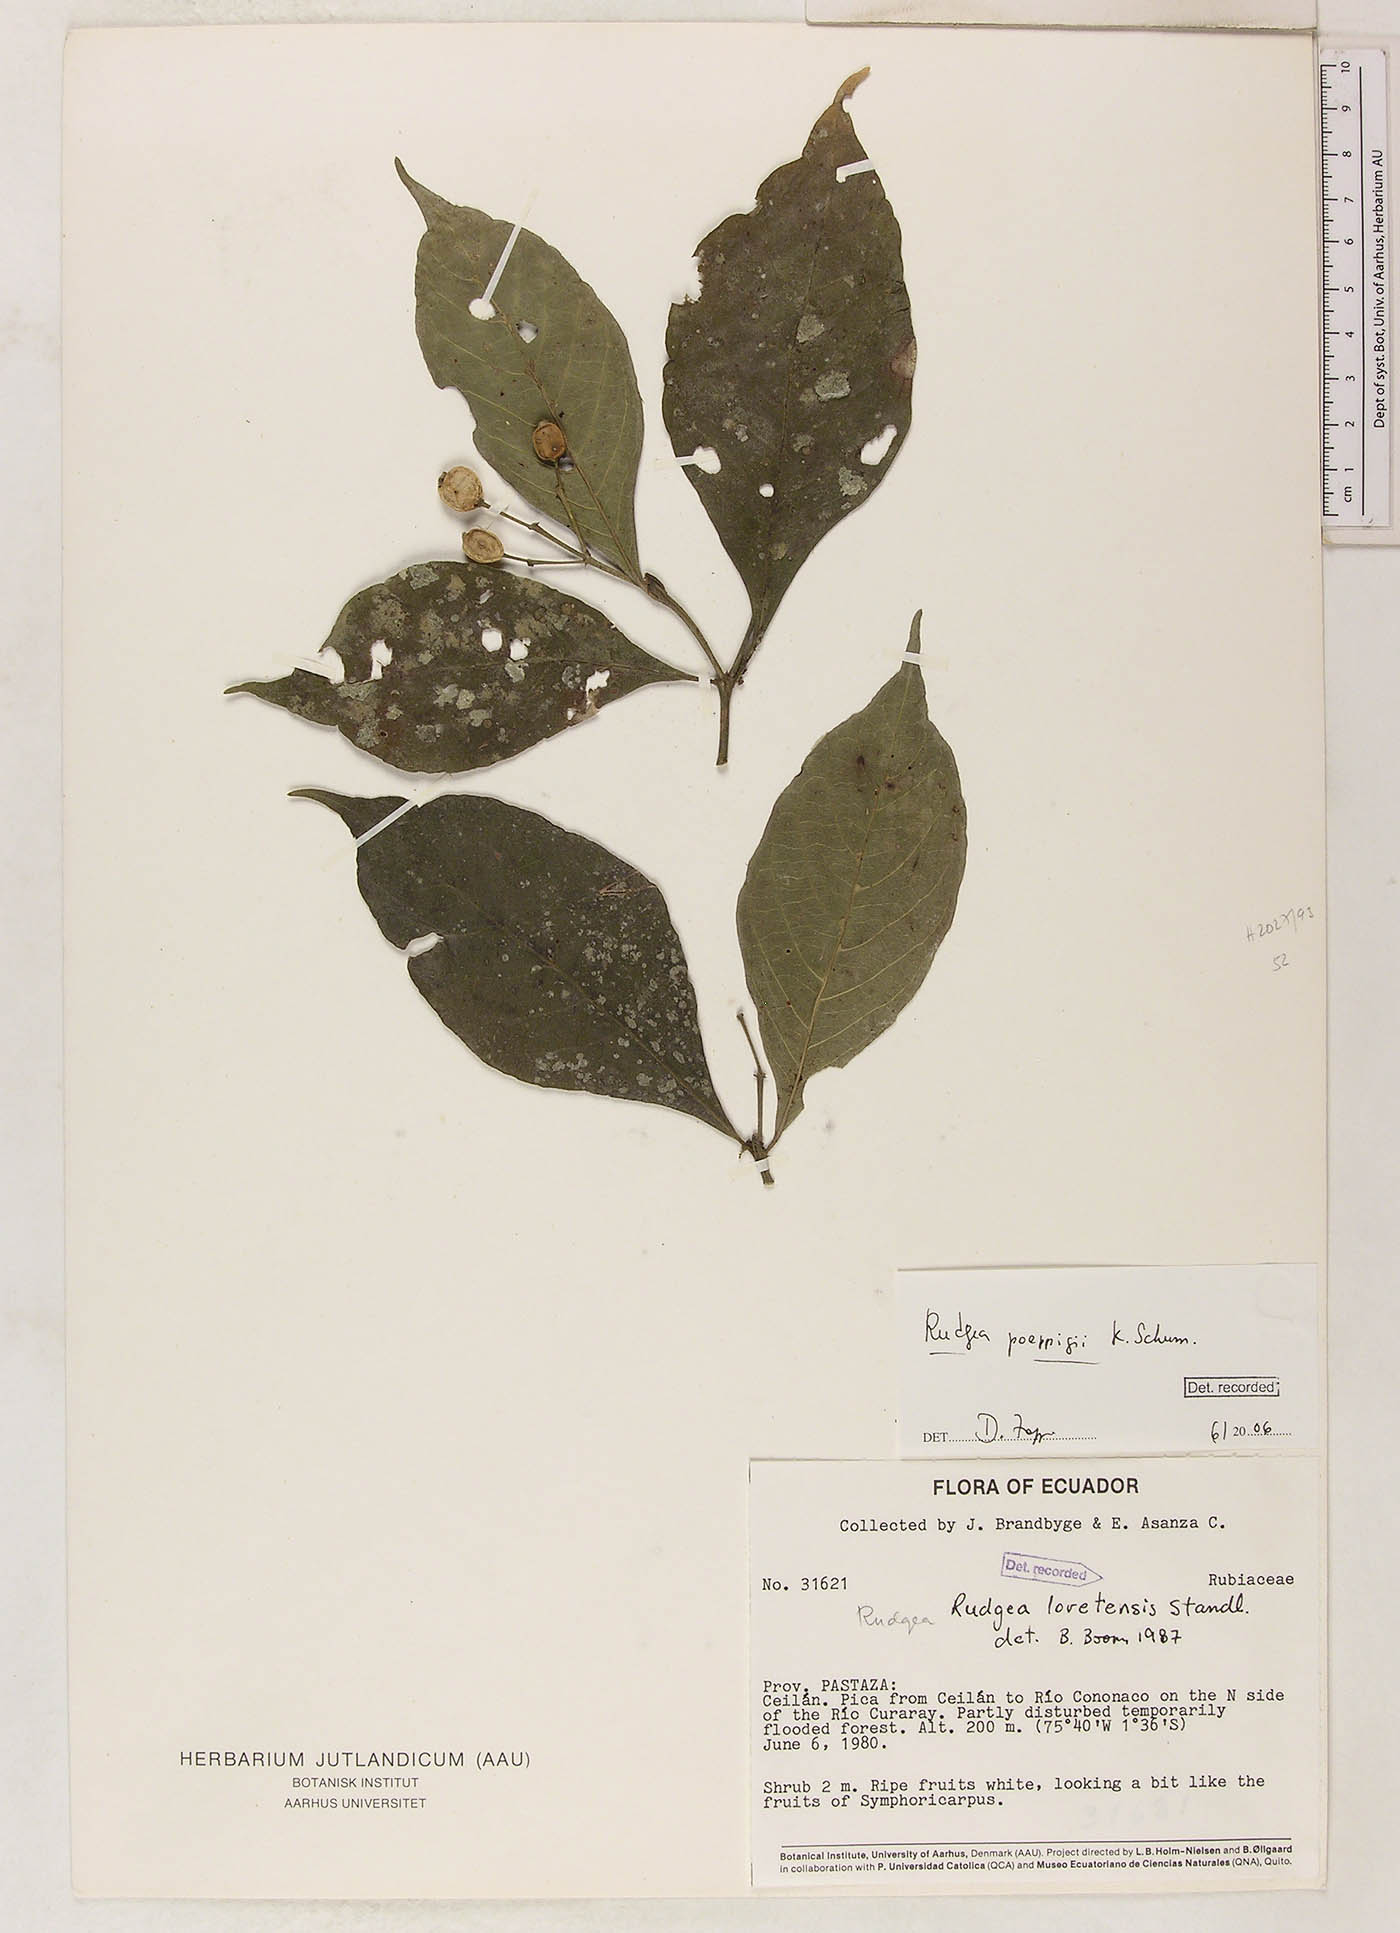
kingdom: Plantae
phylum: Tracheophyta
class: Magnoliopsida
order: Gentianales
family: Rubiaceae
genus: Rudgea
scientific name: Rudgea poeppigii
